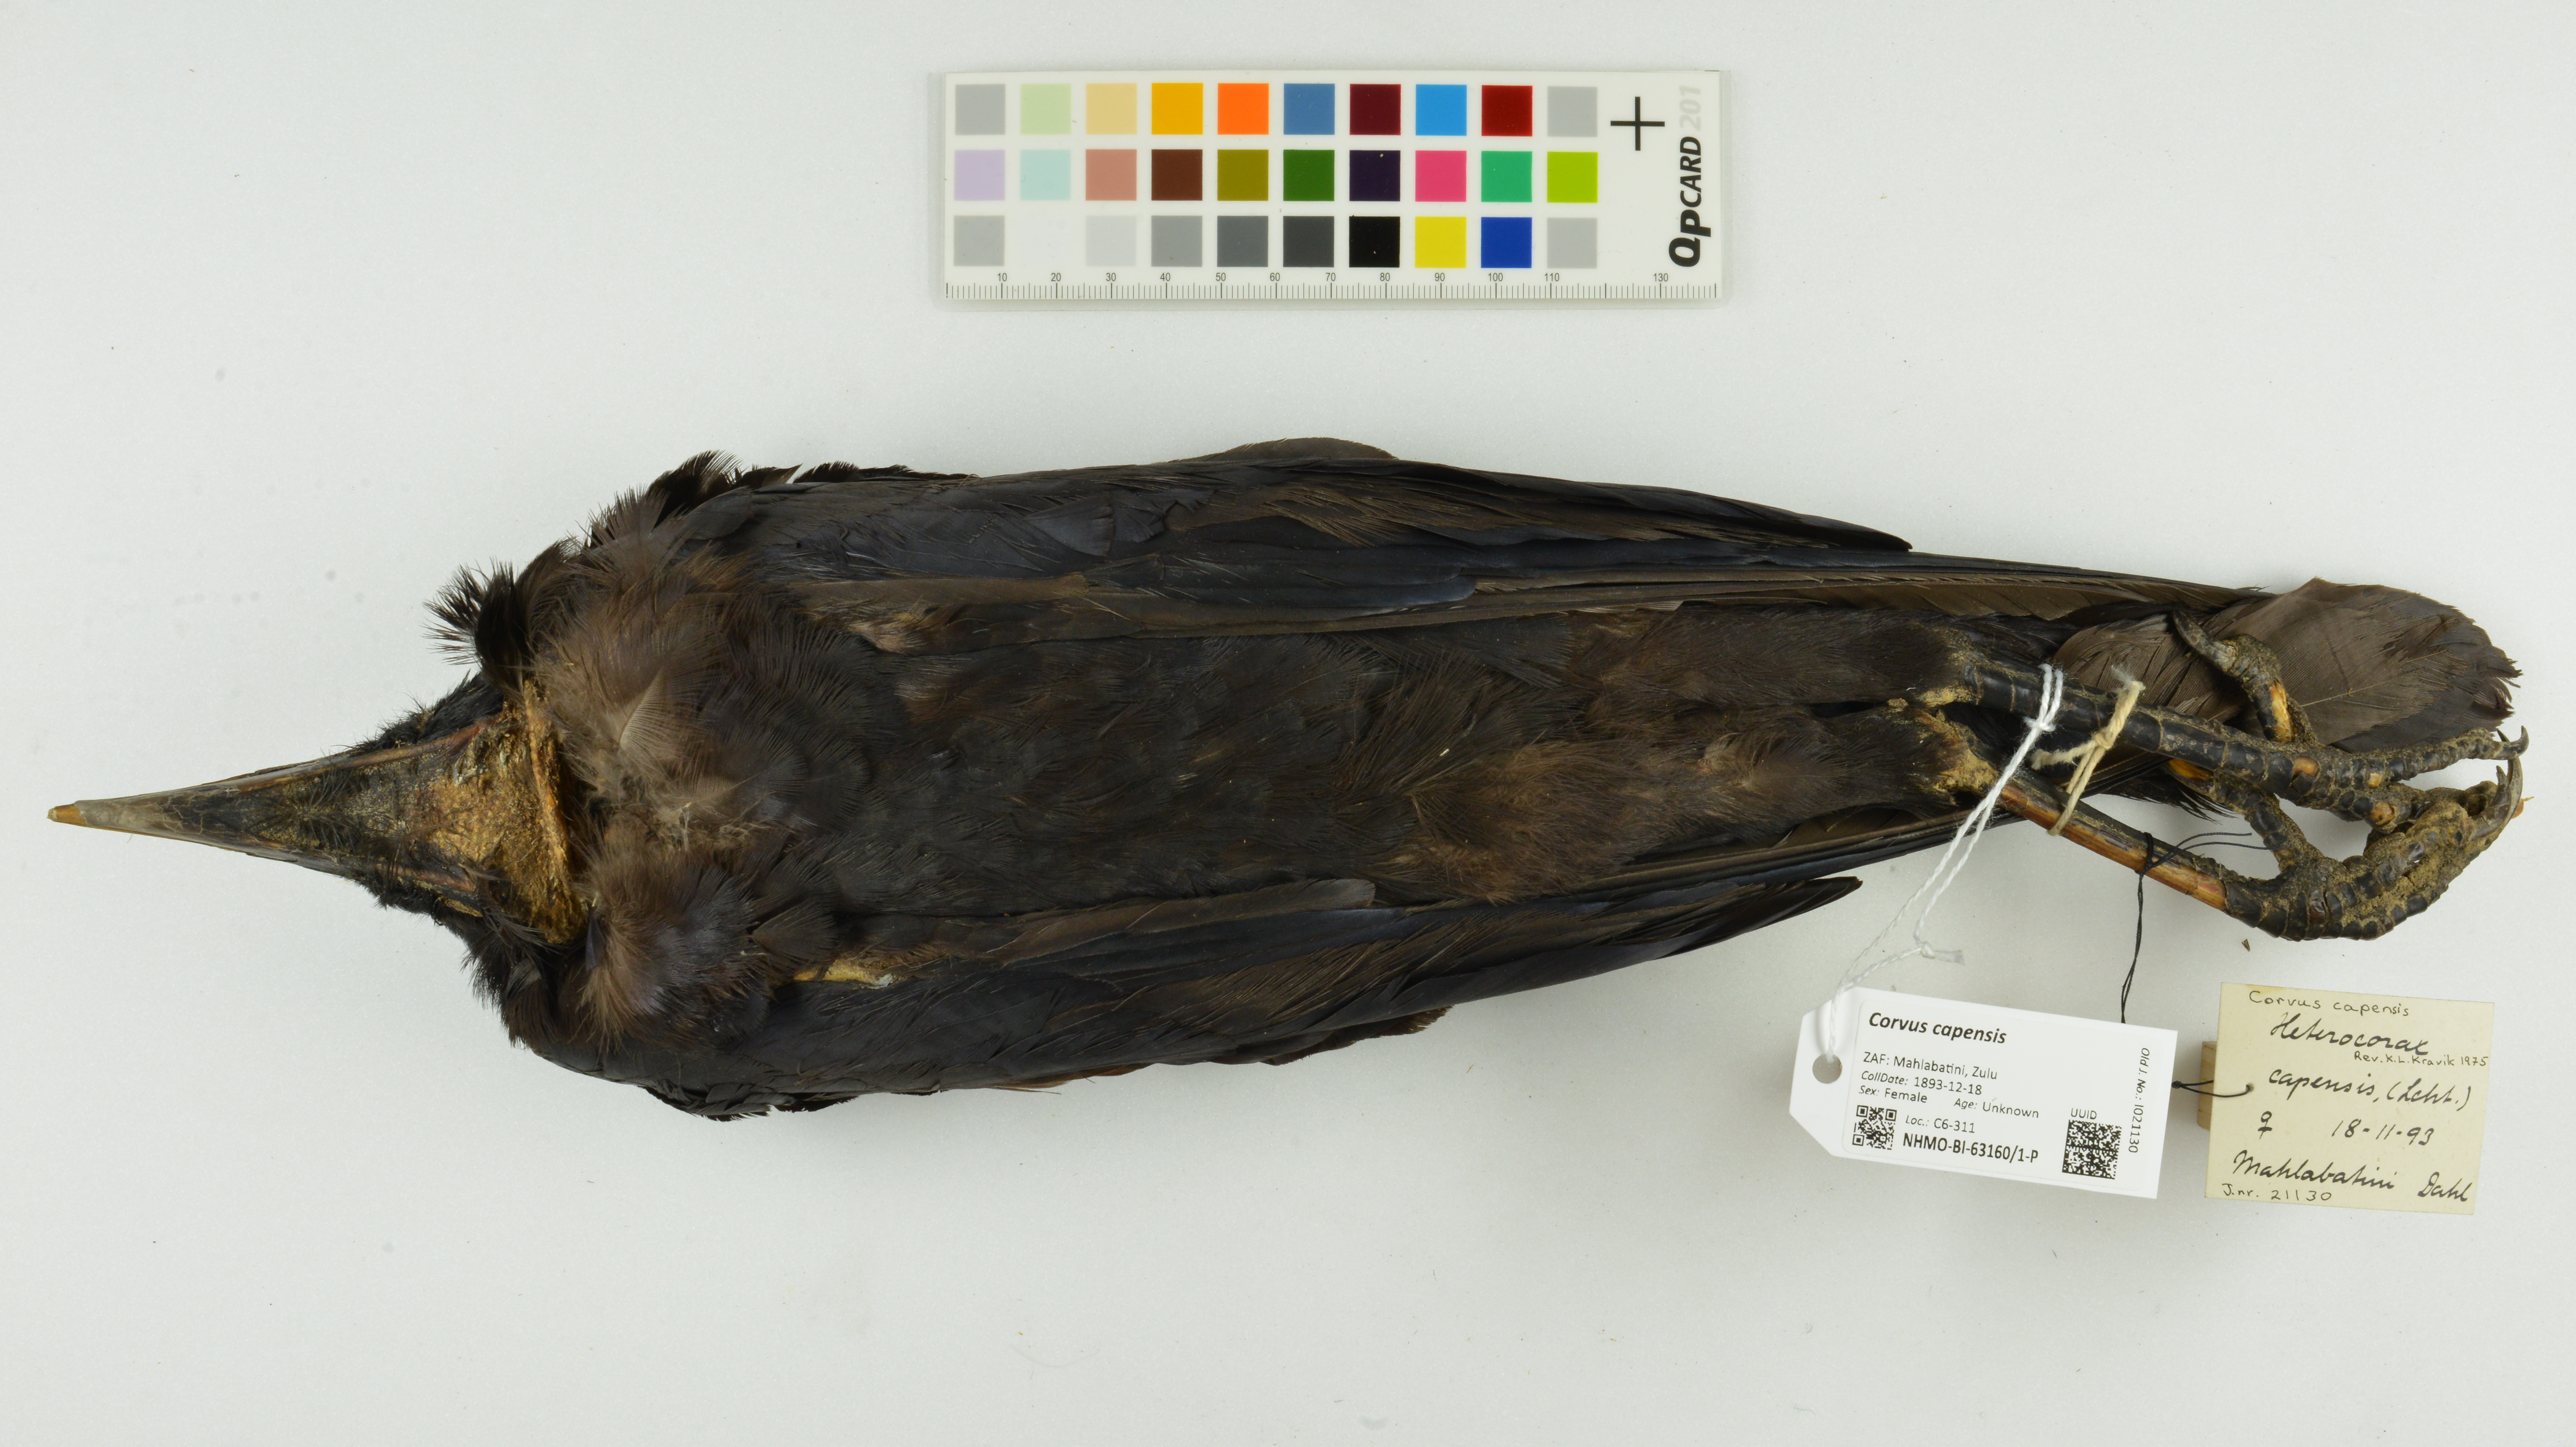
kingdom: Animalia
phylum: Chordata
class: Aves
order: Passeriformes
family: Corvidae
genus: Corvus
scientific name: Corvus capensis
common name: Cape crow
